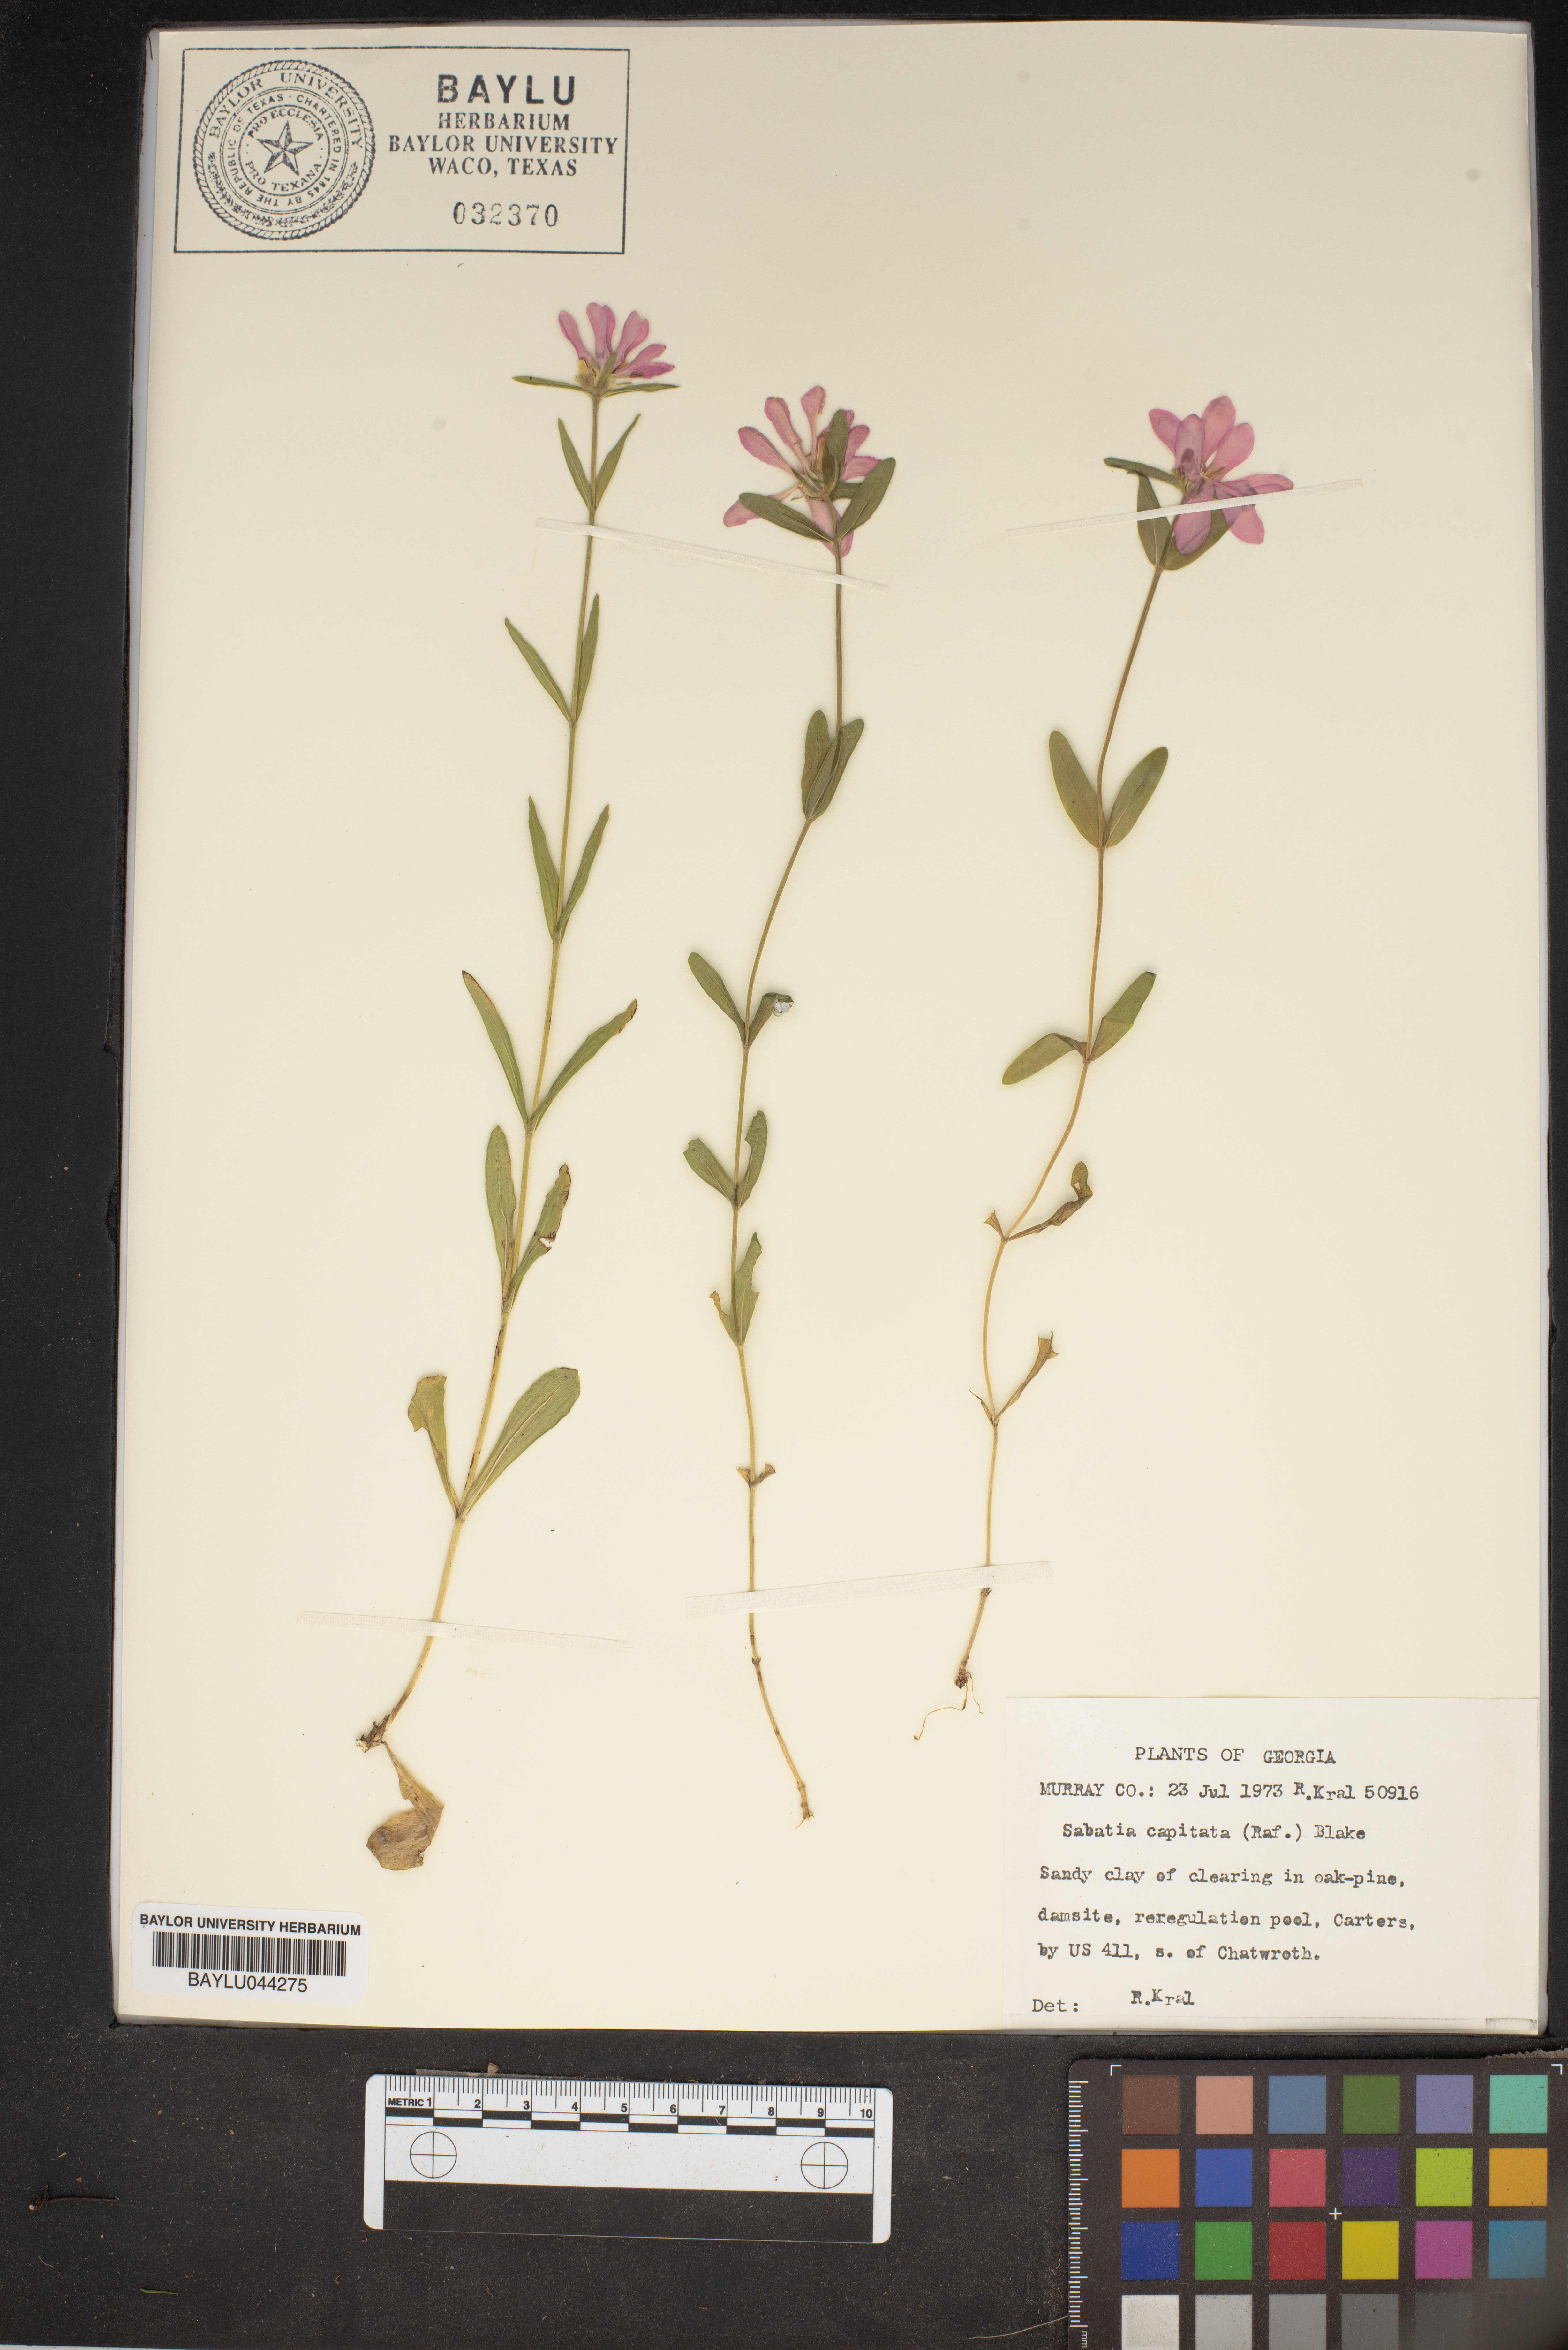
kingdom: Plantae
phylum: Tracheophyta
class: Magnoliopsida
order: Gentianales
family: Gentianaceae
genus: Sabatia
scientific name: Sabatia capitata
